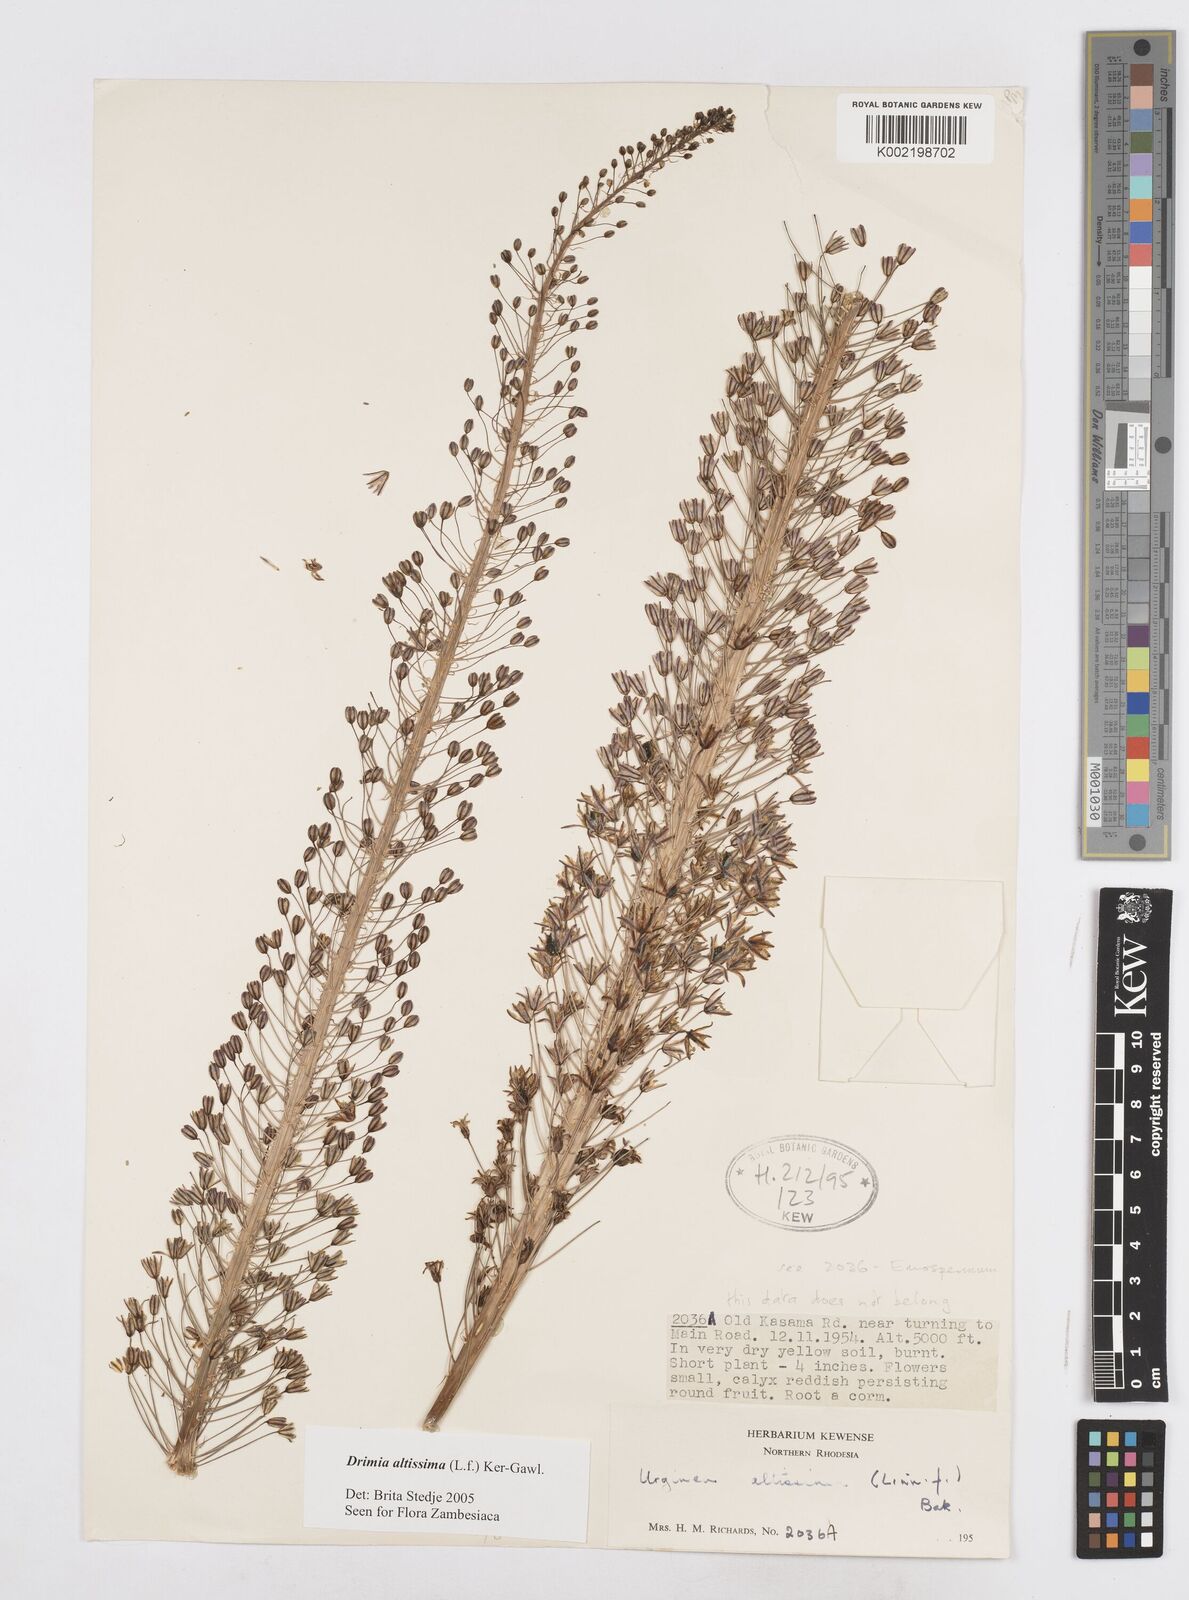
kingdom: Plantae
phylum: Tracheophyta
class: Liliopsida
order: Asparagales
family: Asparagaceae
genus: Drimia
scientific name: Drimia
